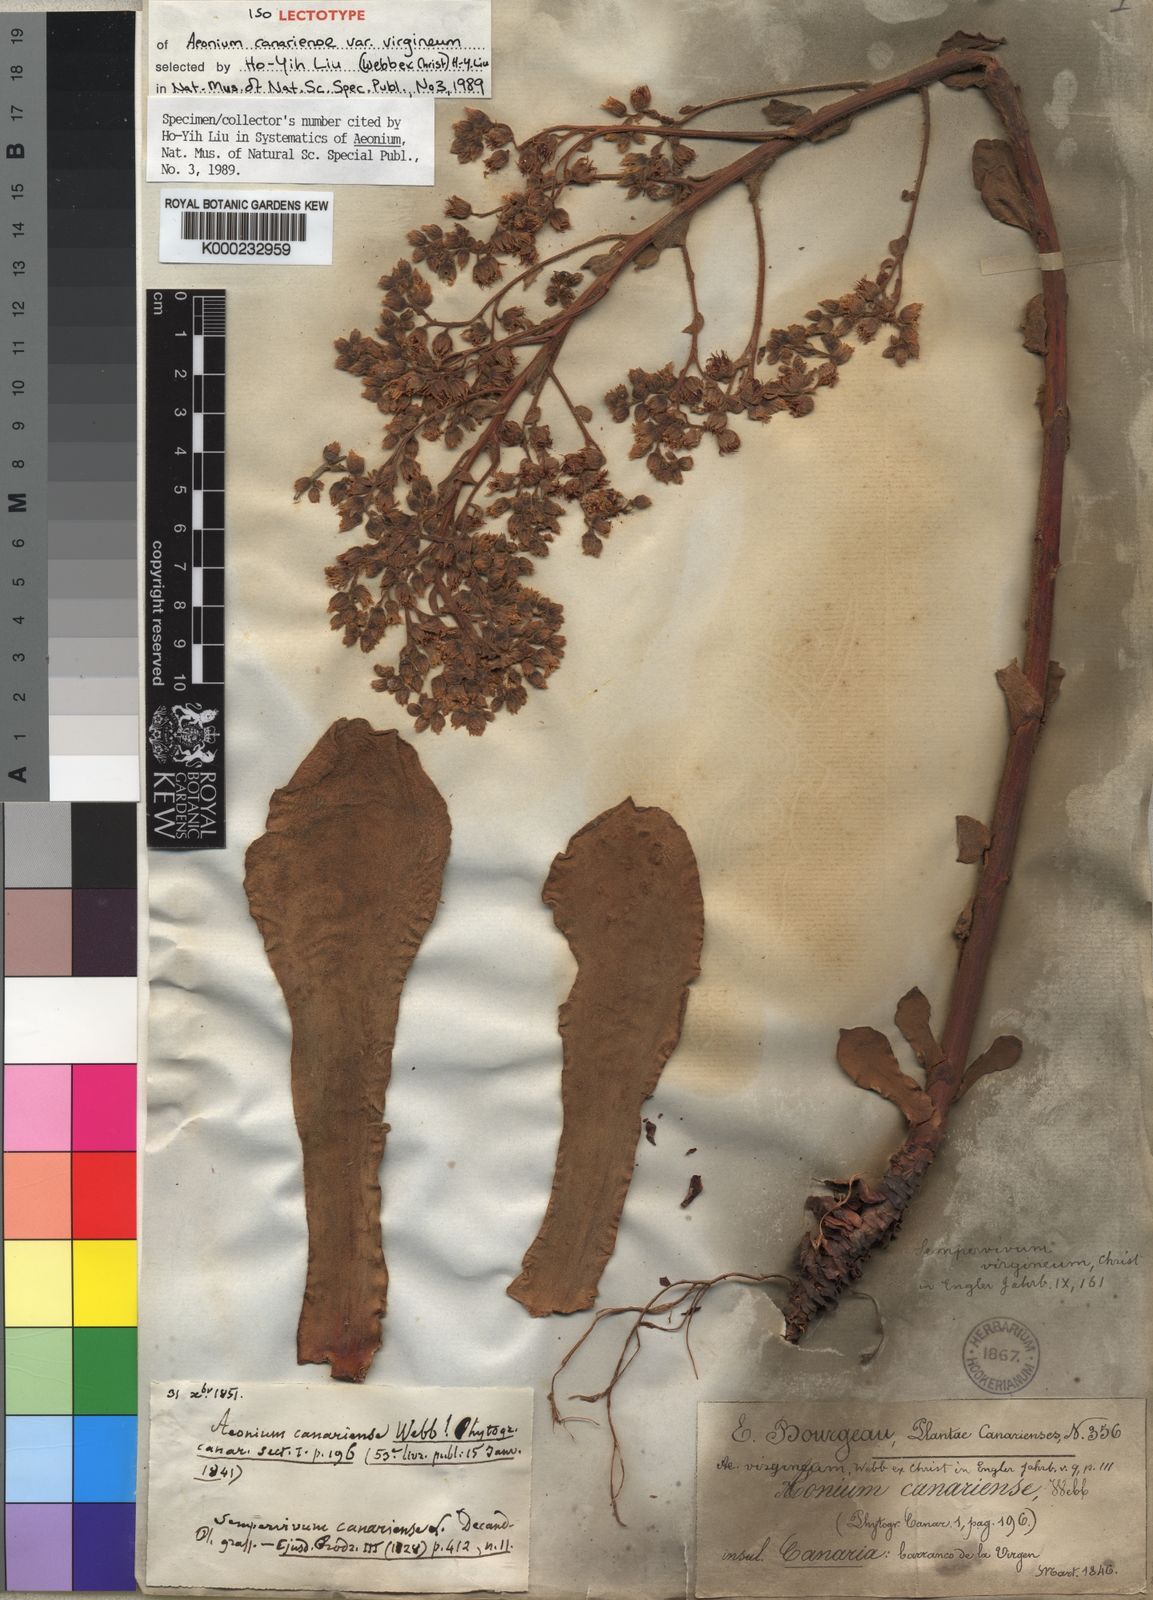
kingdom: Plantae
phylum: Tracheophyta
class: Magnoliopsida
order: Saxifragales
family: Crassulaceae
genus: Aeonium
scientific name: Aeonium canariense
